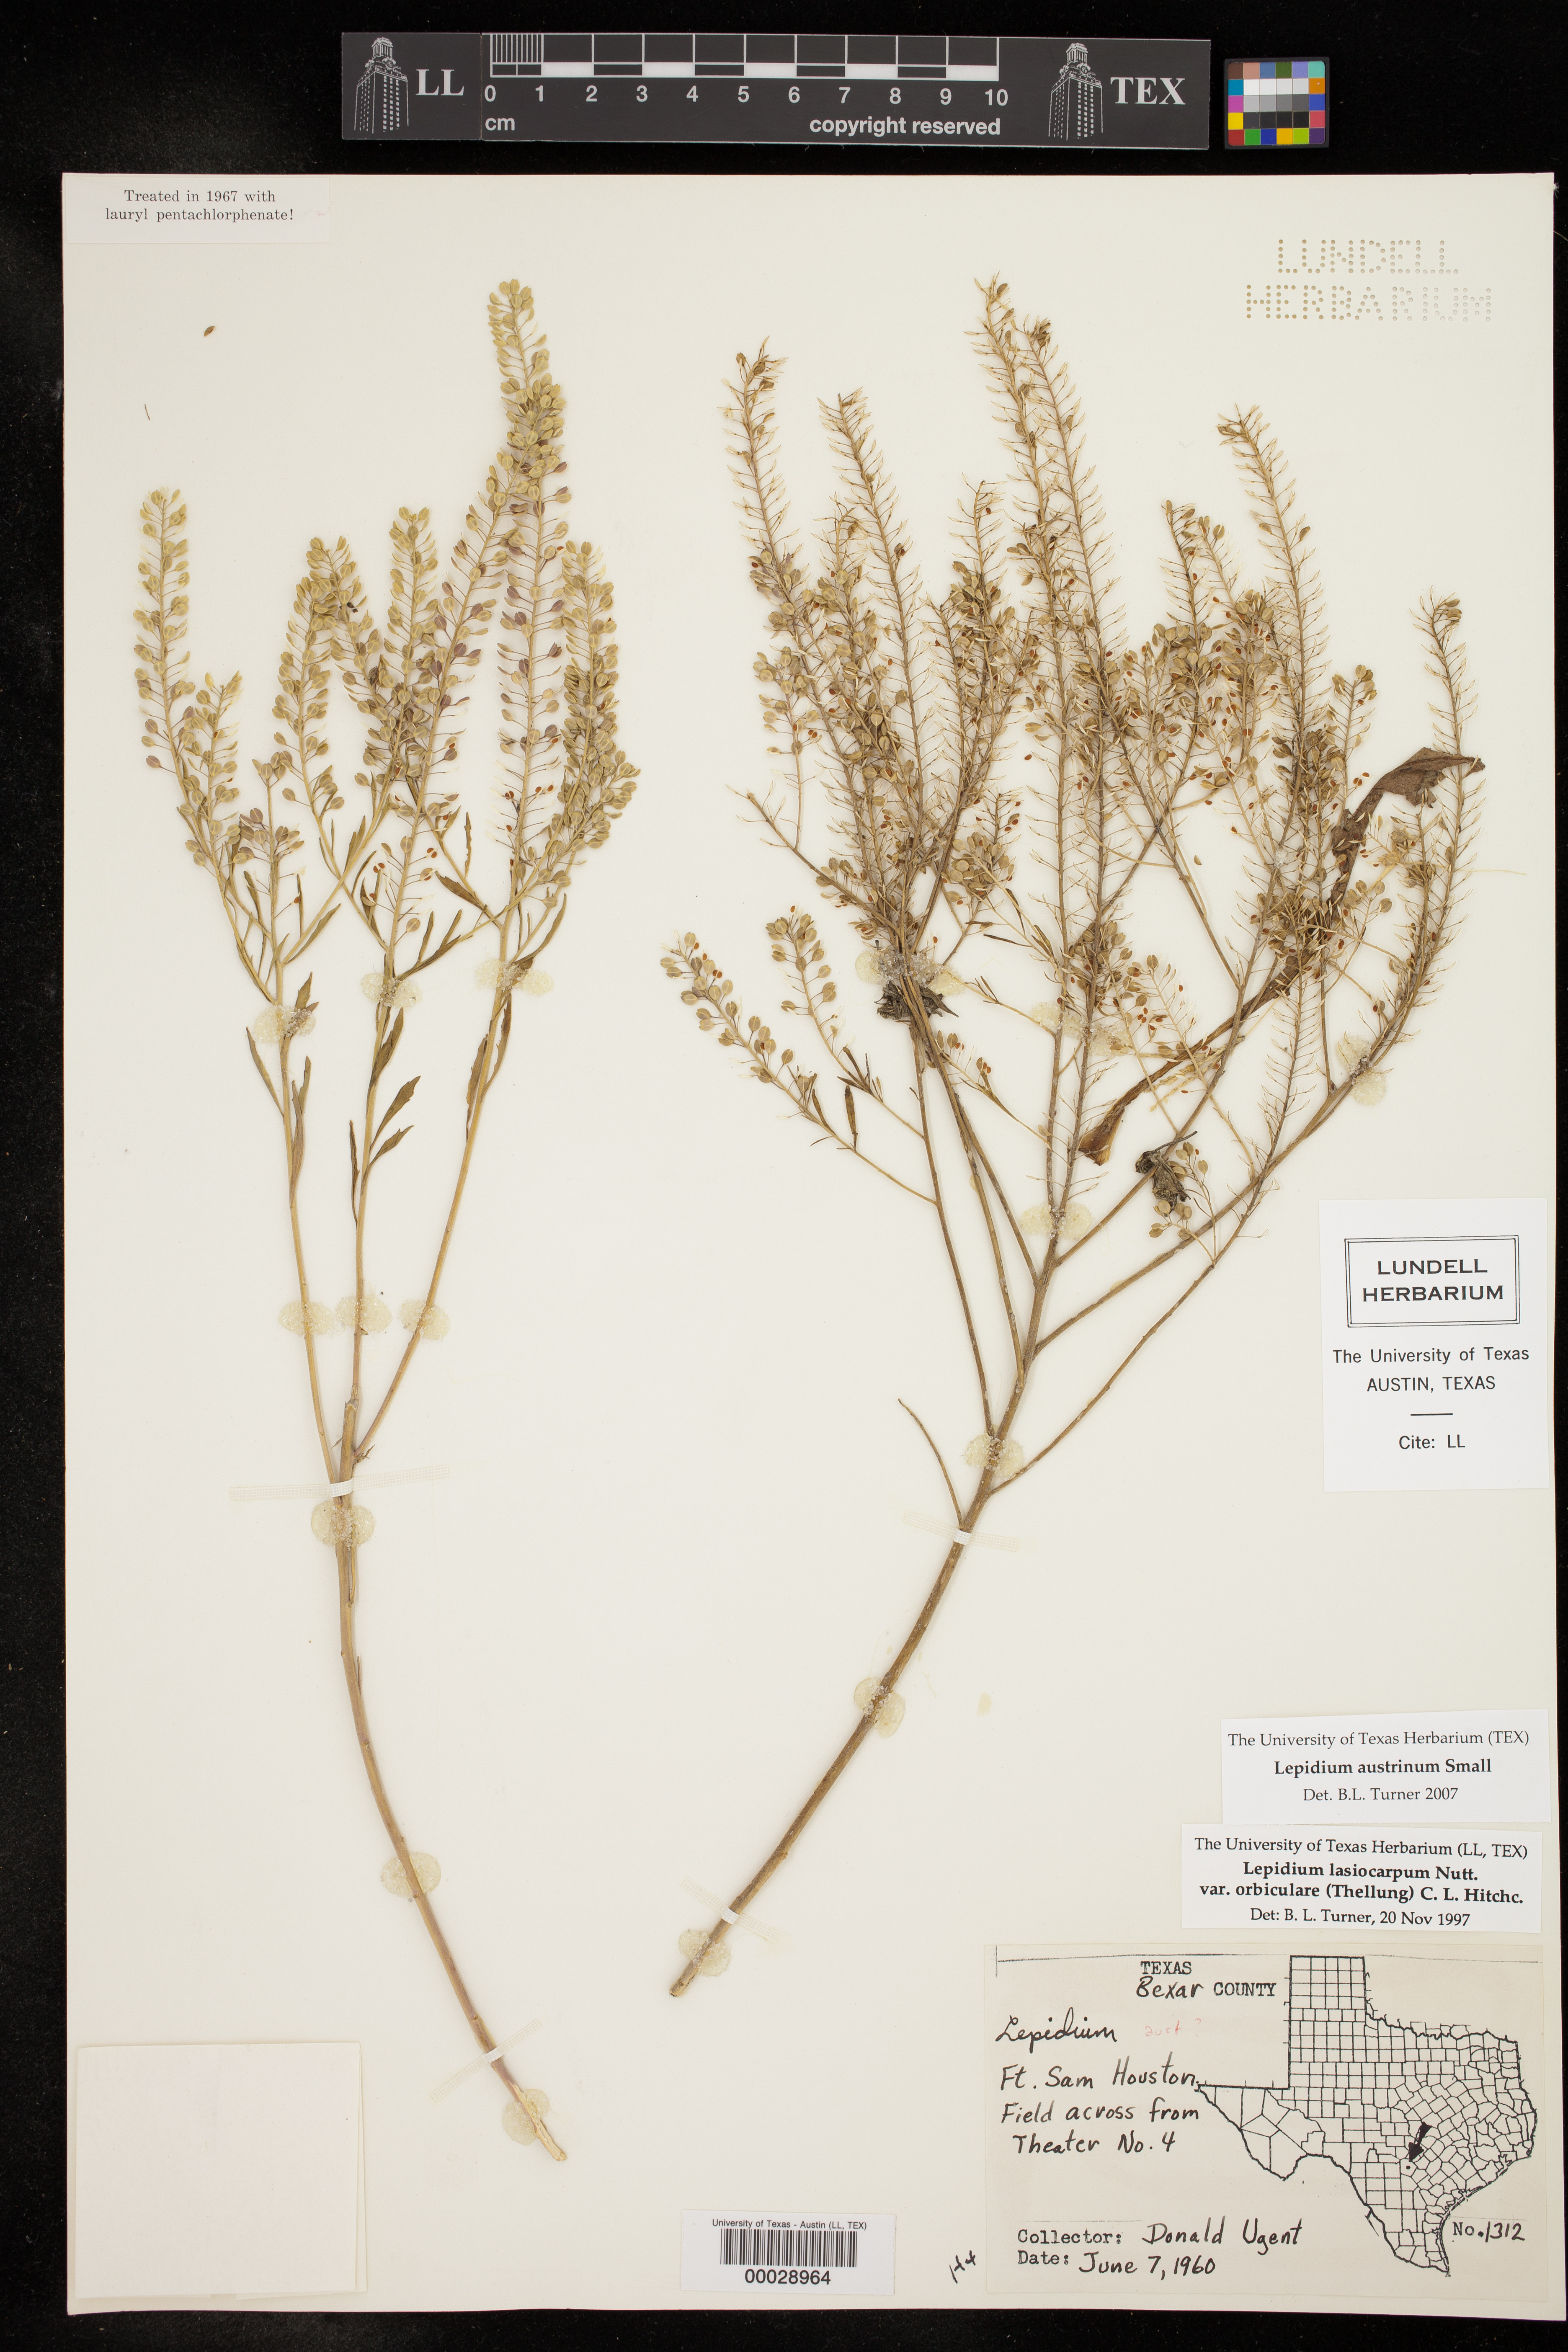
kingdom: Plantae
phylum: Tracheophyta
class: Magnoliopsida
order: Brassicales
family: Brassicaceae
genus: Lepidium
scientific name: Lepidium austrinum
